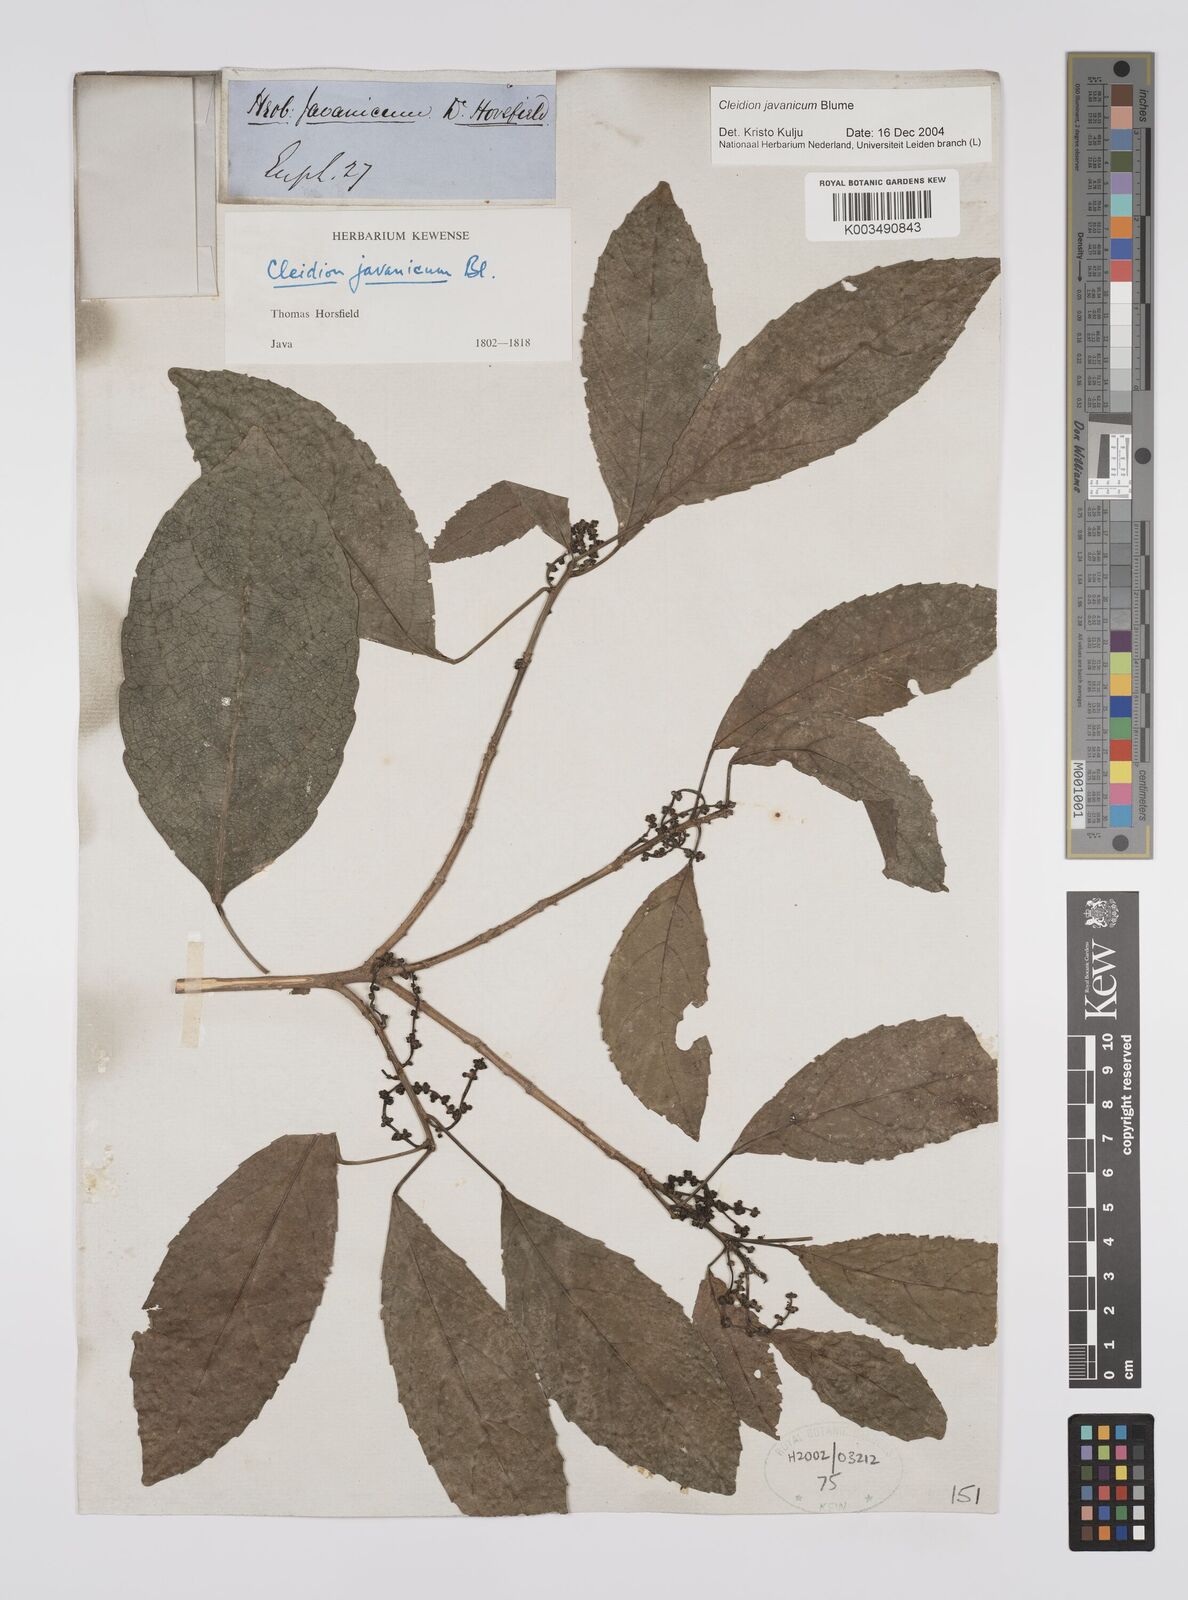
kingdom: Plantae
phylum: Tracheophyta
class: Magnoliopsida
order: Malpighiales
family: Euphorbiaceae
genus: Acalypha
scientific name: Acalypha spiciflora
